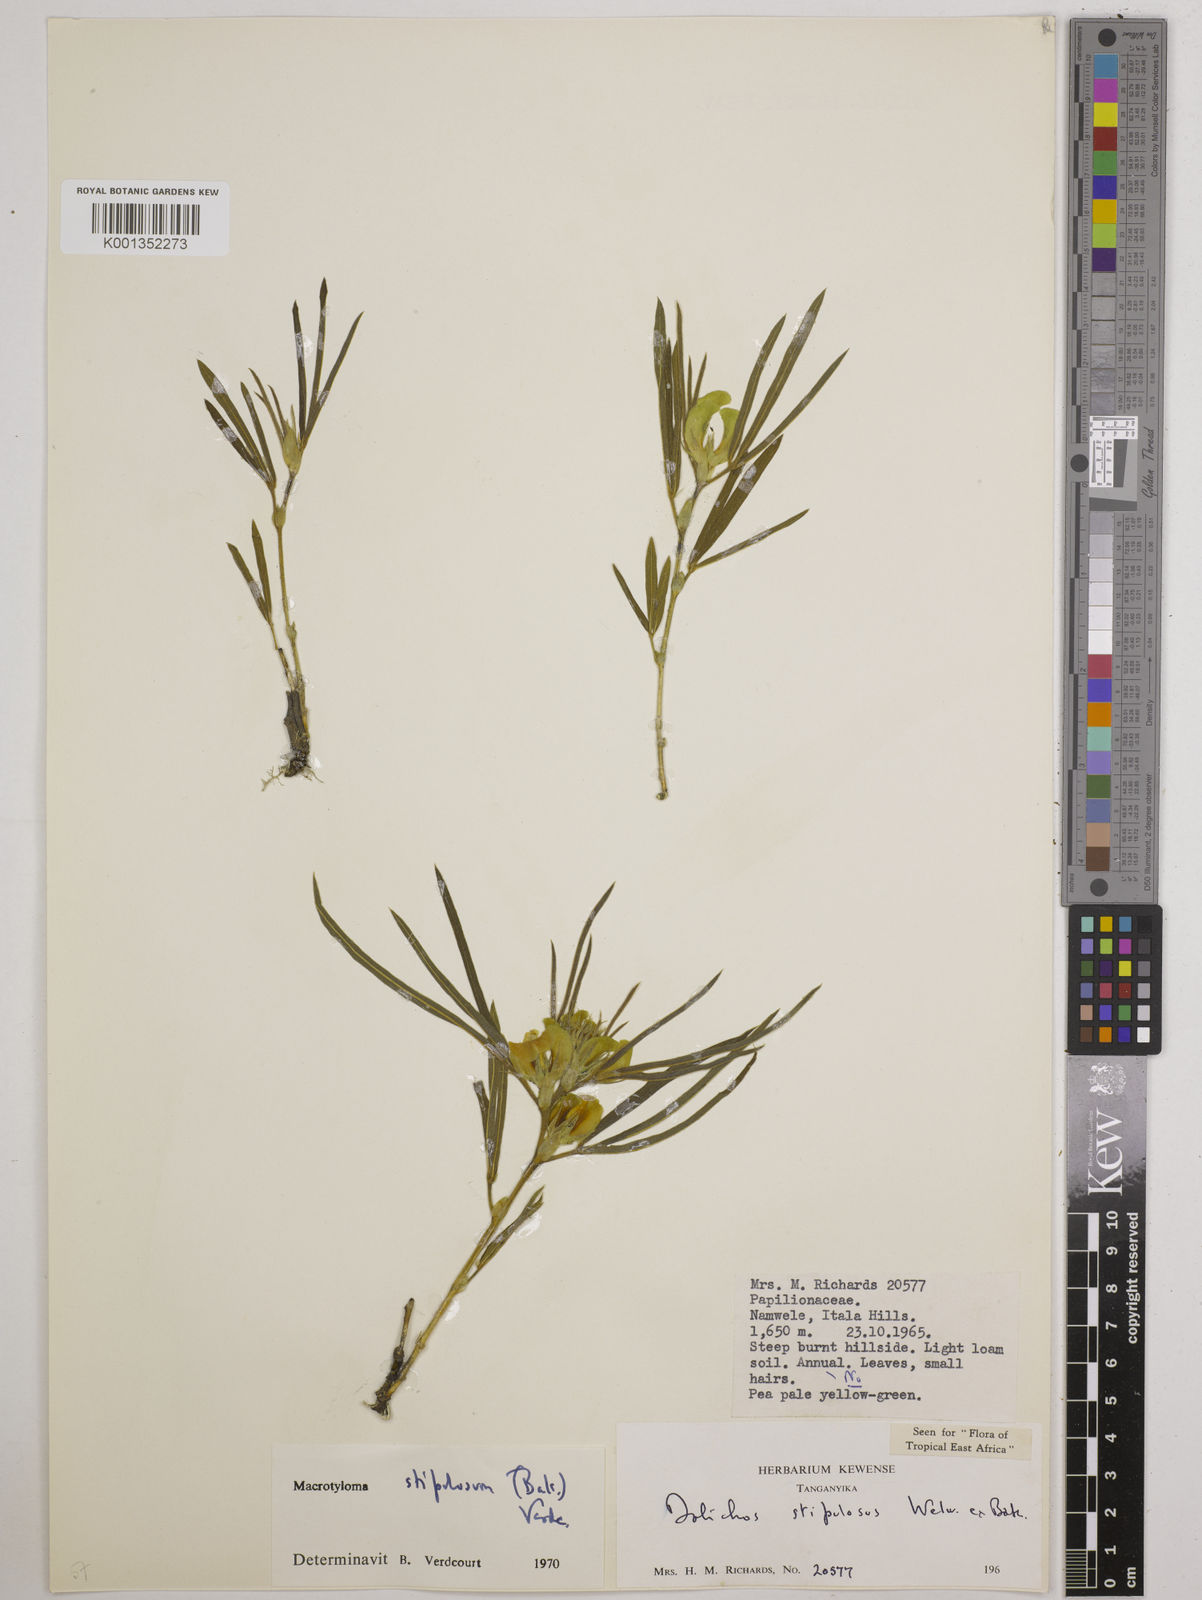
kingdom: Plantae
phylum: Tracheophyta
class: Magnoliopsida
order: Fabales
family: Fabaceae
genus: Macrotyloma
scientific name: Macrotyloma stipulosum
